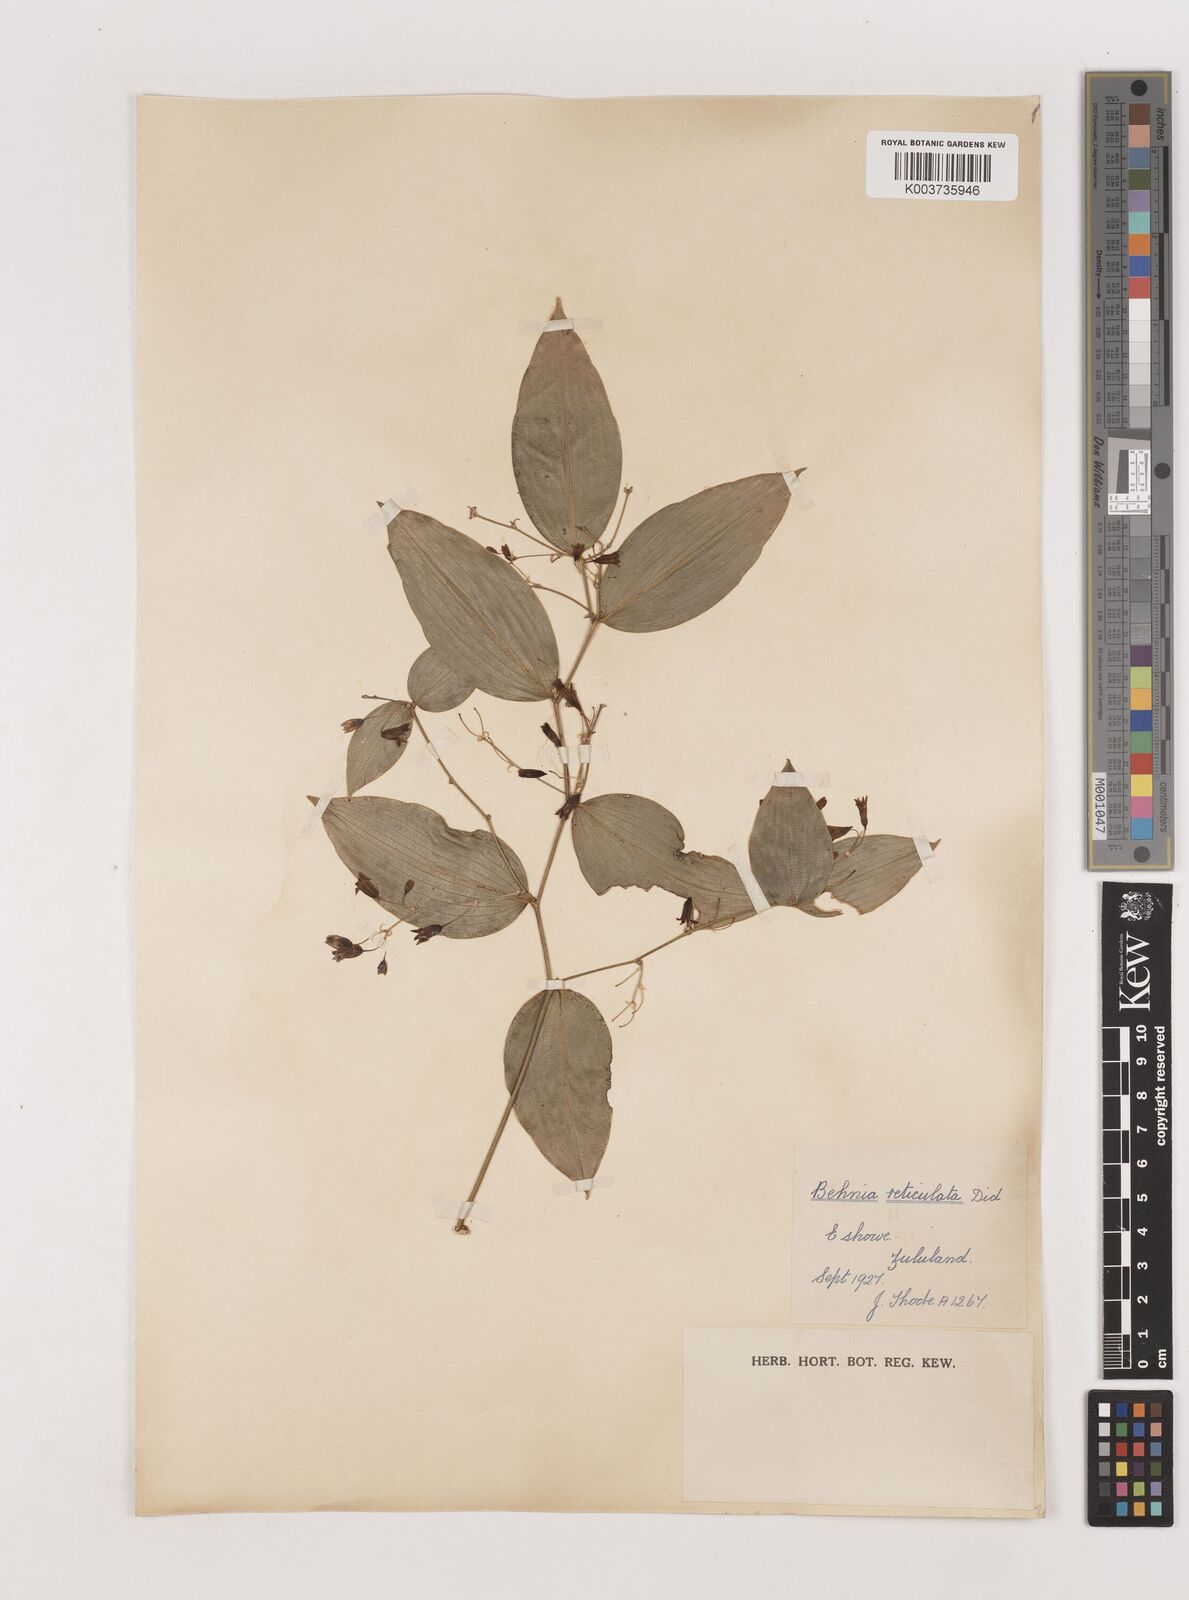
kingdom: Plantae
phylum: Tracheophyta
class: Liliopsida
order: Asparagales
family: Asparagaceae
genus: Behnia
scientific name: Behnia reticulata
